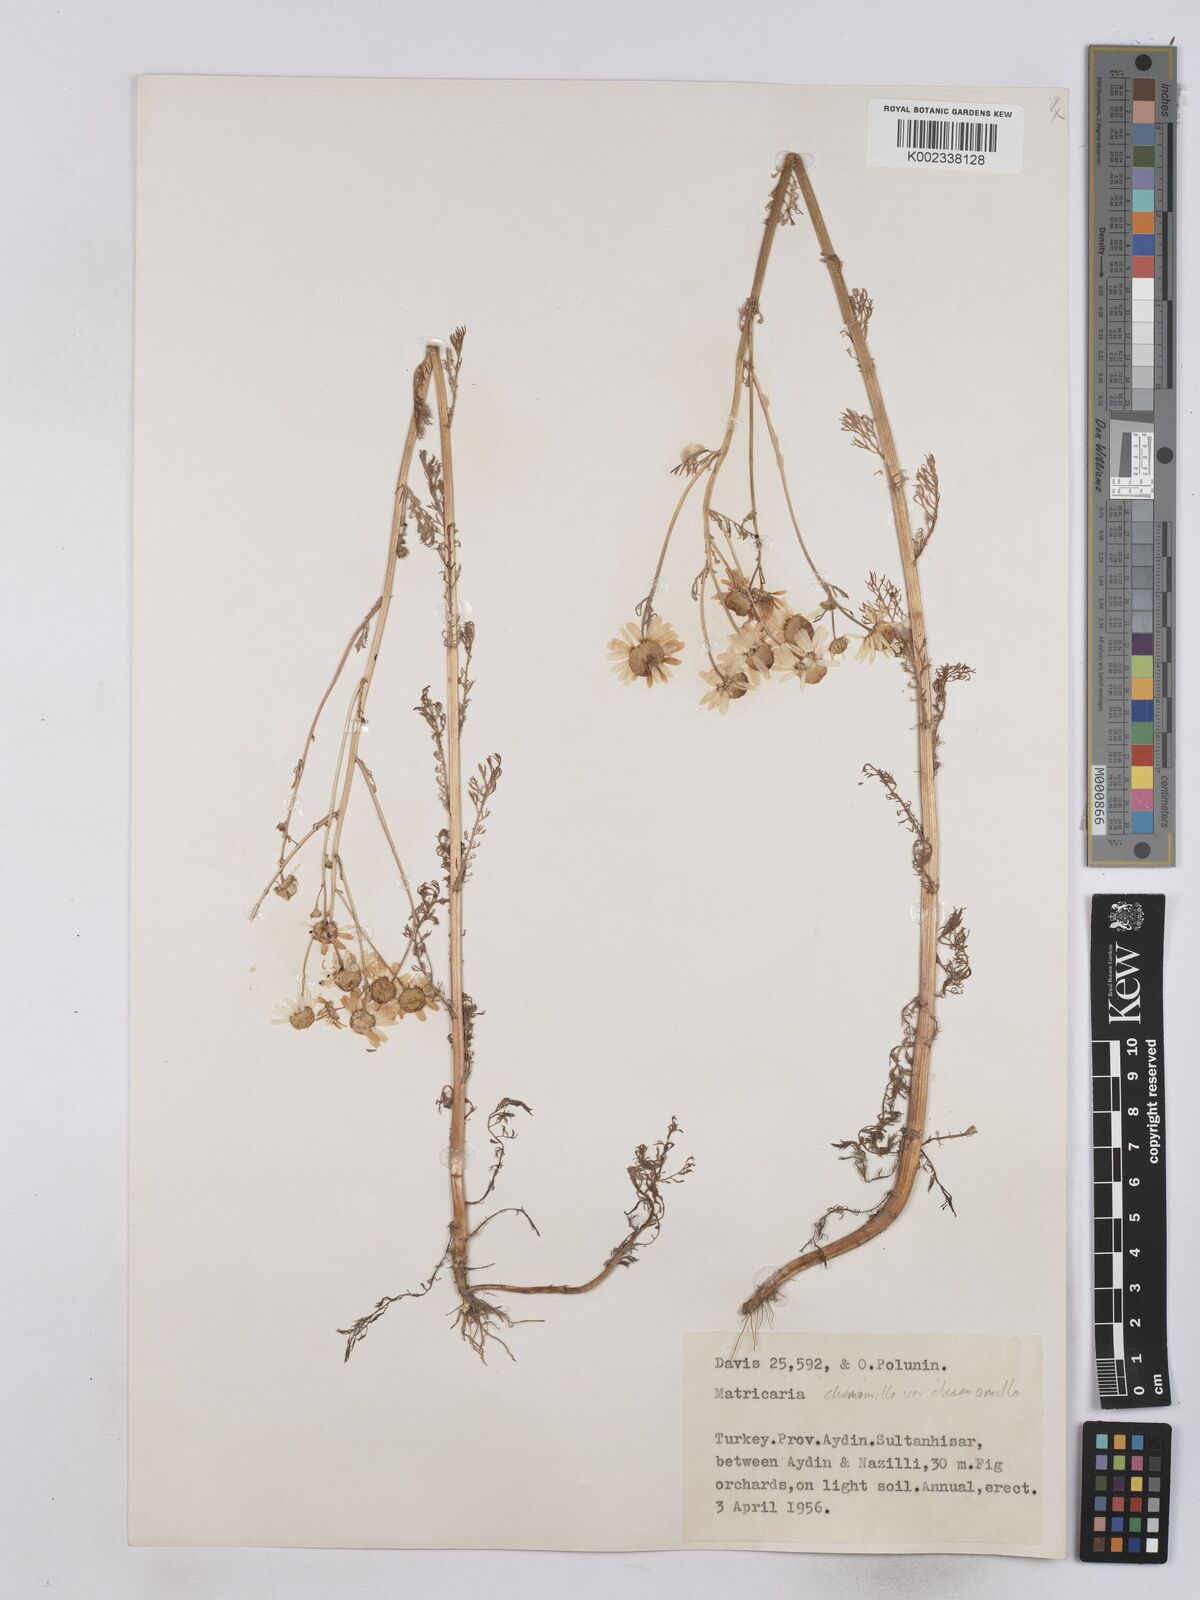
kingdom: Plantae
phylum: Tracheophyta
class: Magnoliopsida
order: Asterales
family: Asteraceae
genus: Matricaria
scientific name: Matricaria chamomilla
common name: Scented mayweed
